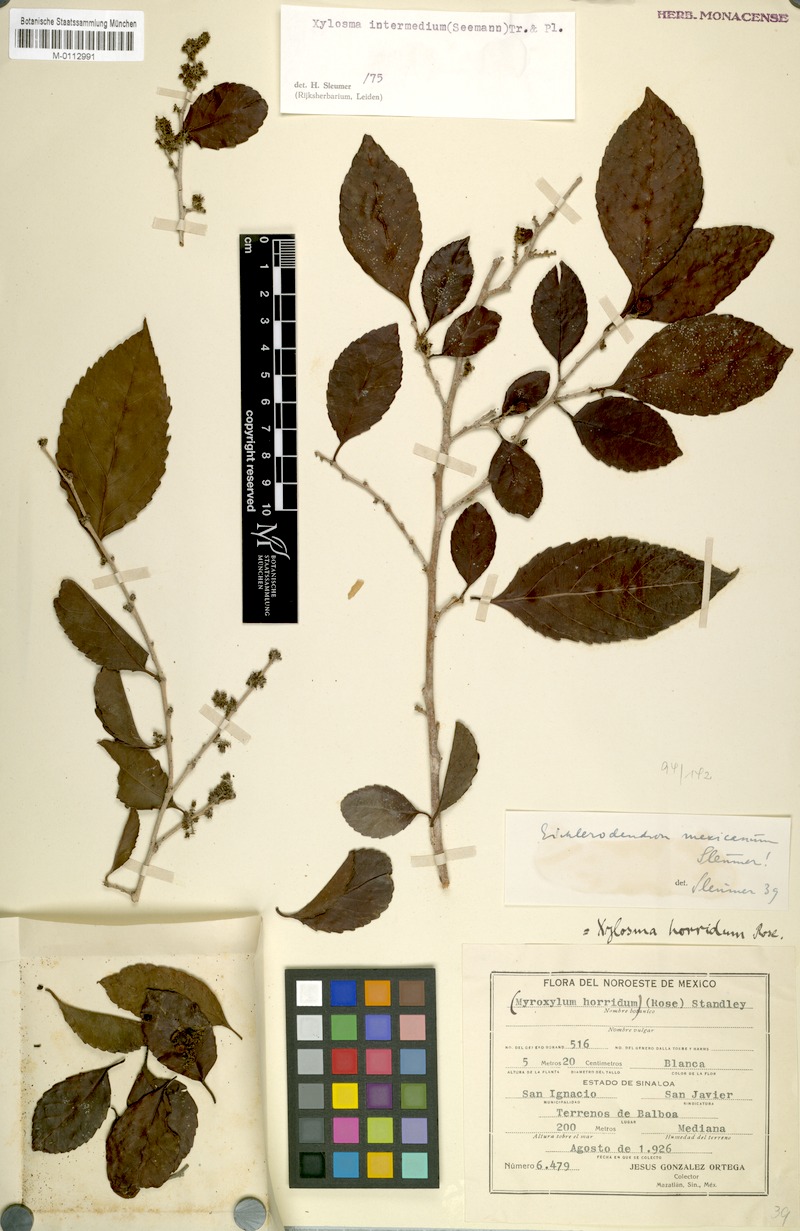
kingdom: Plantae
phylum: Tracheophyta
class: Magnoliopsida
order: Malpighiales
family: Salicaceae
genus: Xylosma
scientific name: Xylosma intermedia
